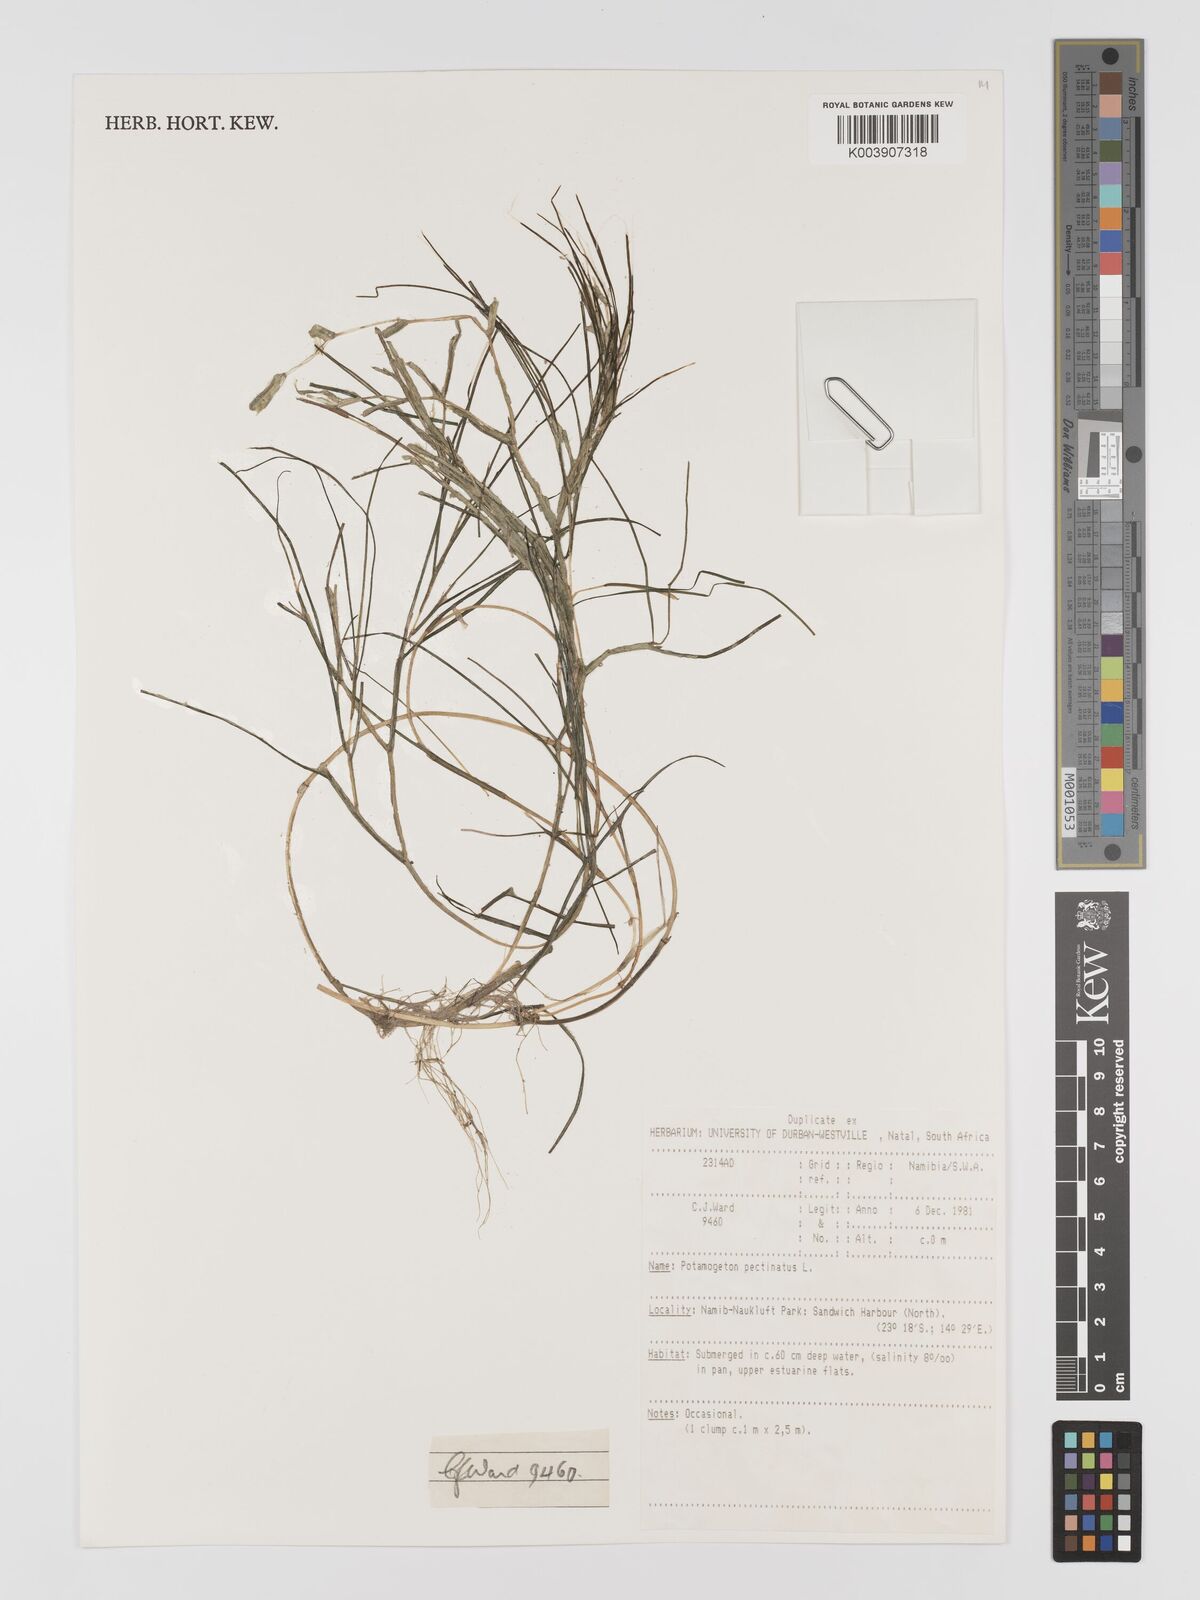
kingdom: Plantae
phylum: Tracheophyta
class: Liliopsida
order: Alismatales
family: Potamogetonaceae
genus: Stuckenia
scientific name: Stuckenia pectinata
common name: Sago pondweed
